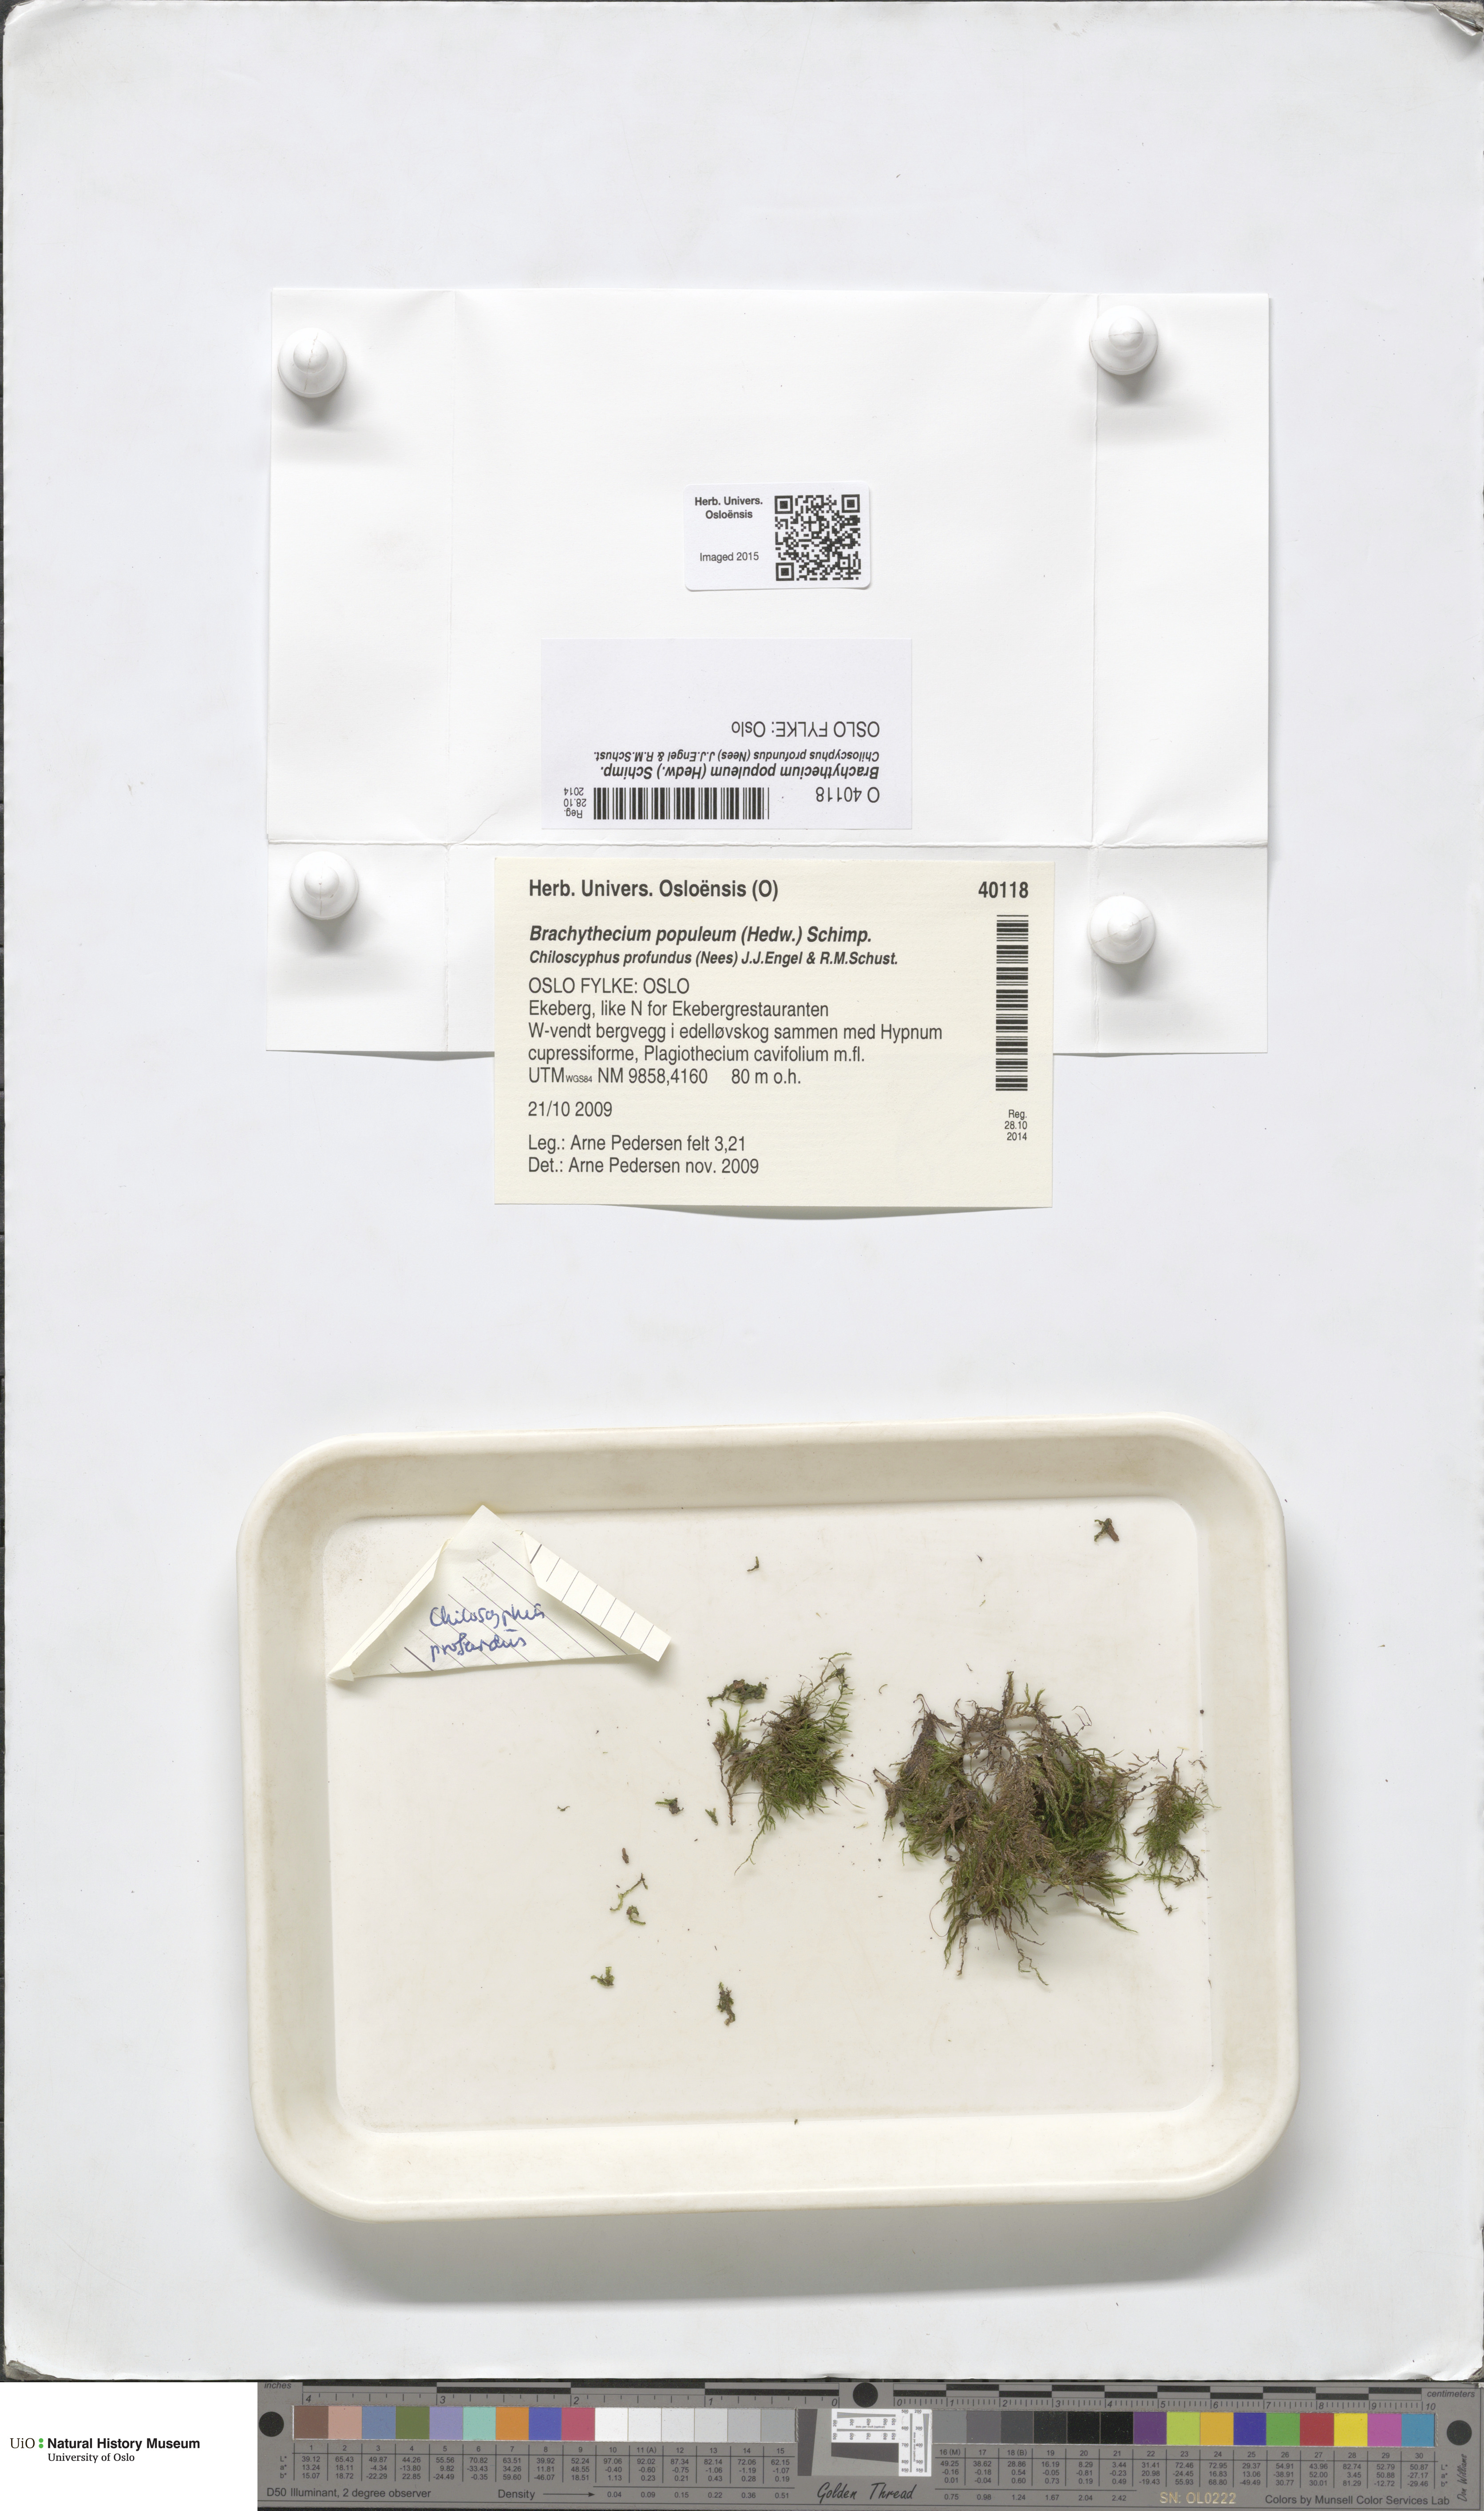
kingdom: Plantae
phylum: Bryophyta
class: Bryopsida
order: Hypnales
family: Brachytheciaceae
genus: Sciuro-hypnum
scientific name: Sciuro-hypnum plumosum
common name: Rusty feather-moss
